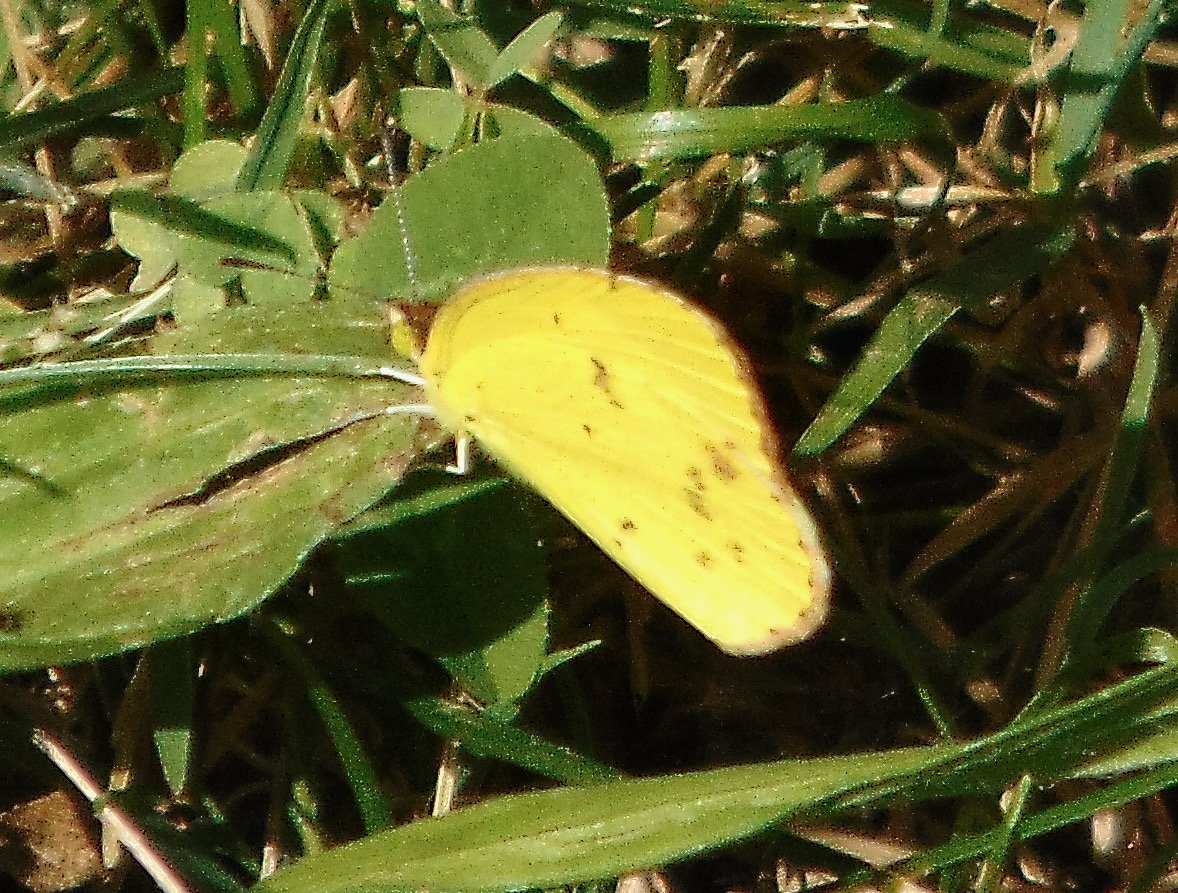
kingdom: Animalia
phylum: Arthropoda
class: Insecta
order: Lepidoptera
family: Pieridae
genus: Pyrisitia
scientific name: Pyrisitia lisa
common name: Little Yellow
